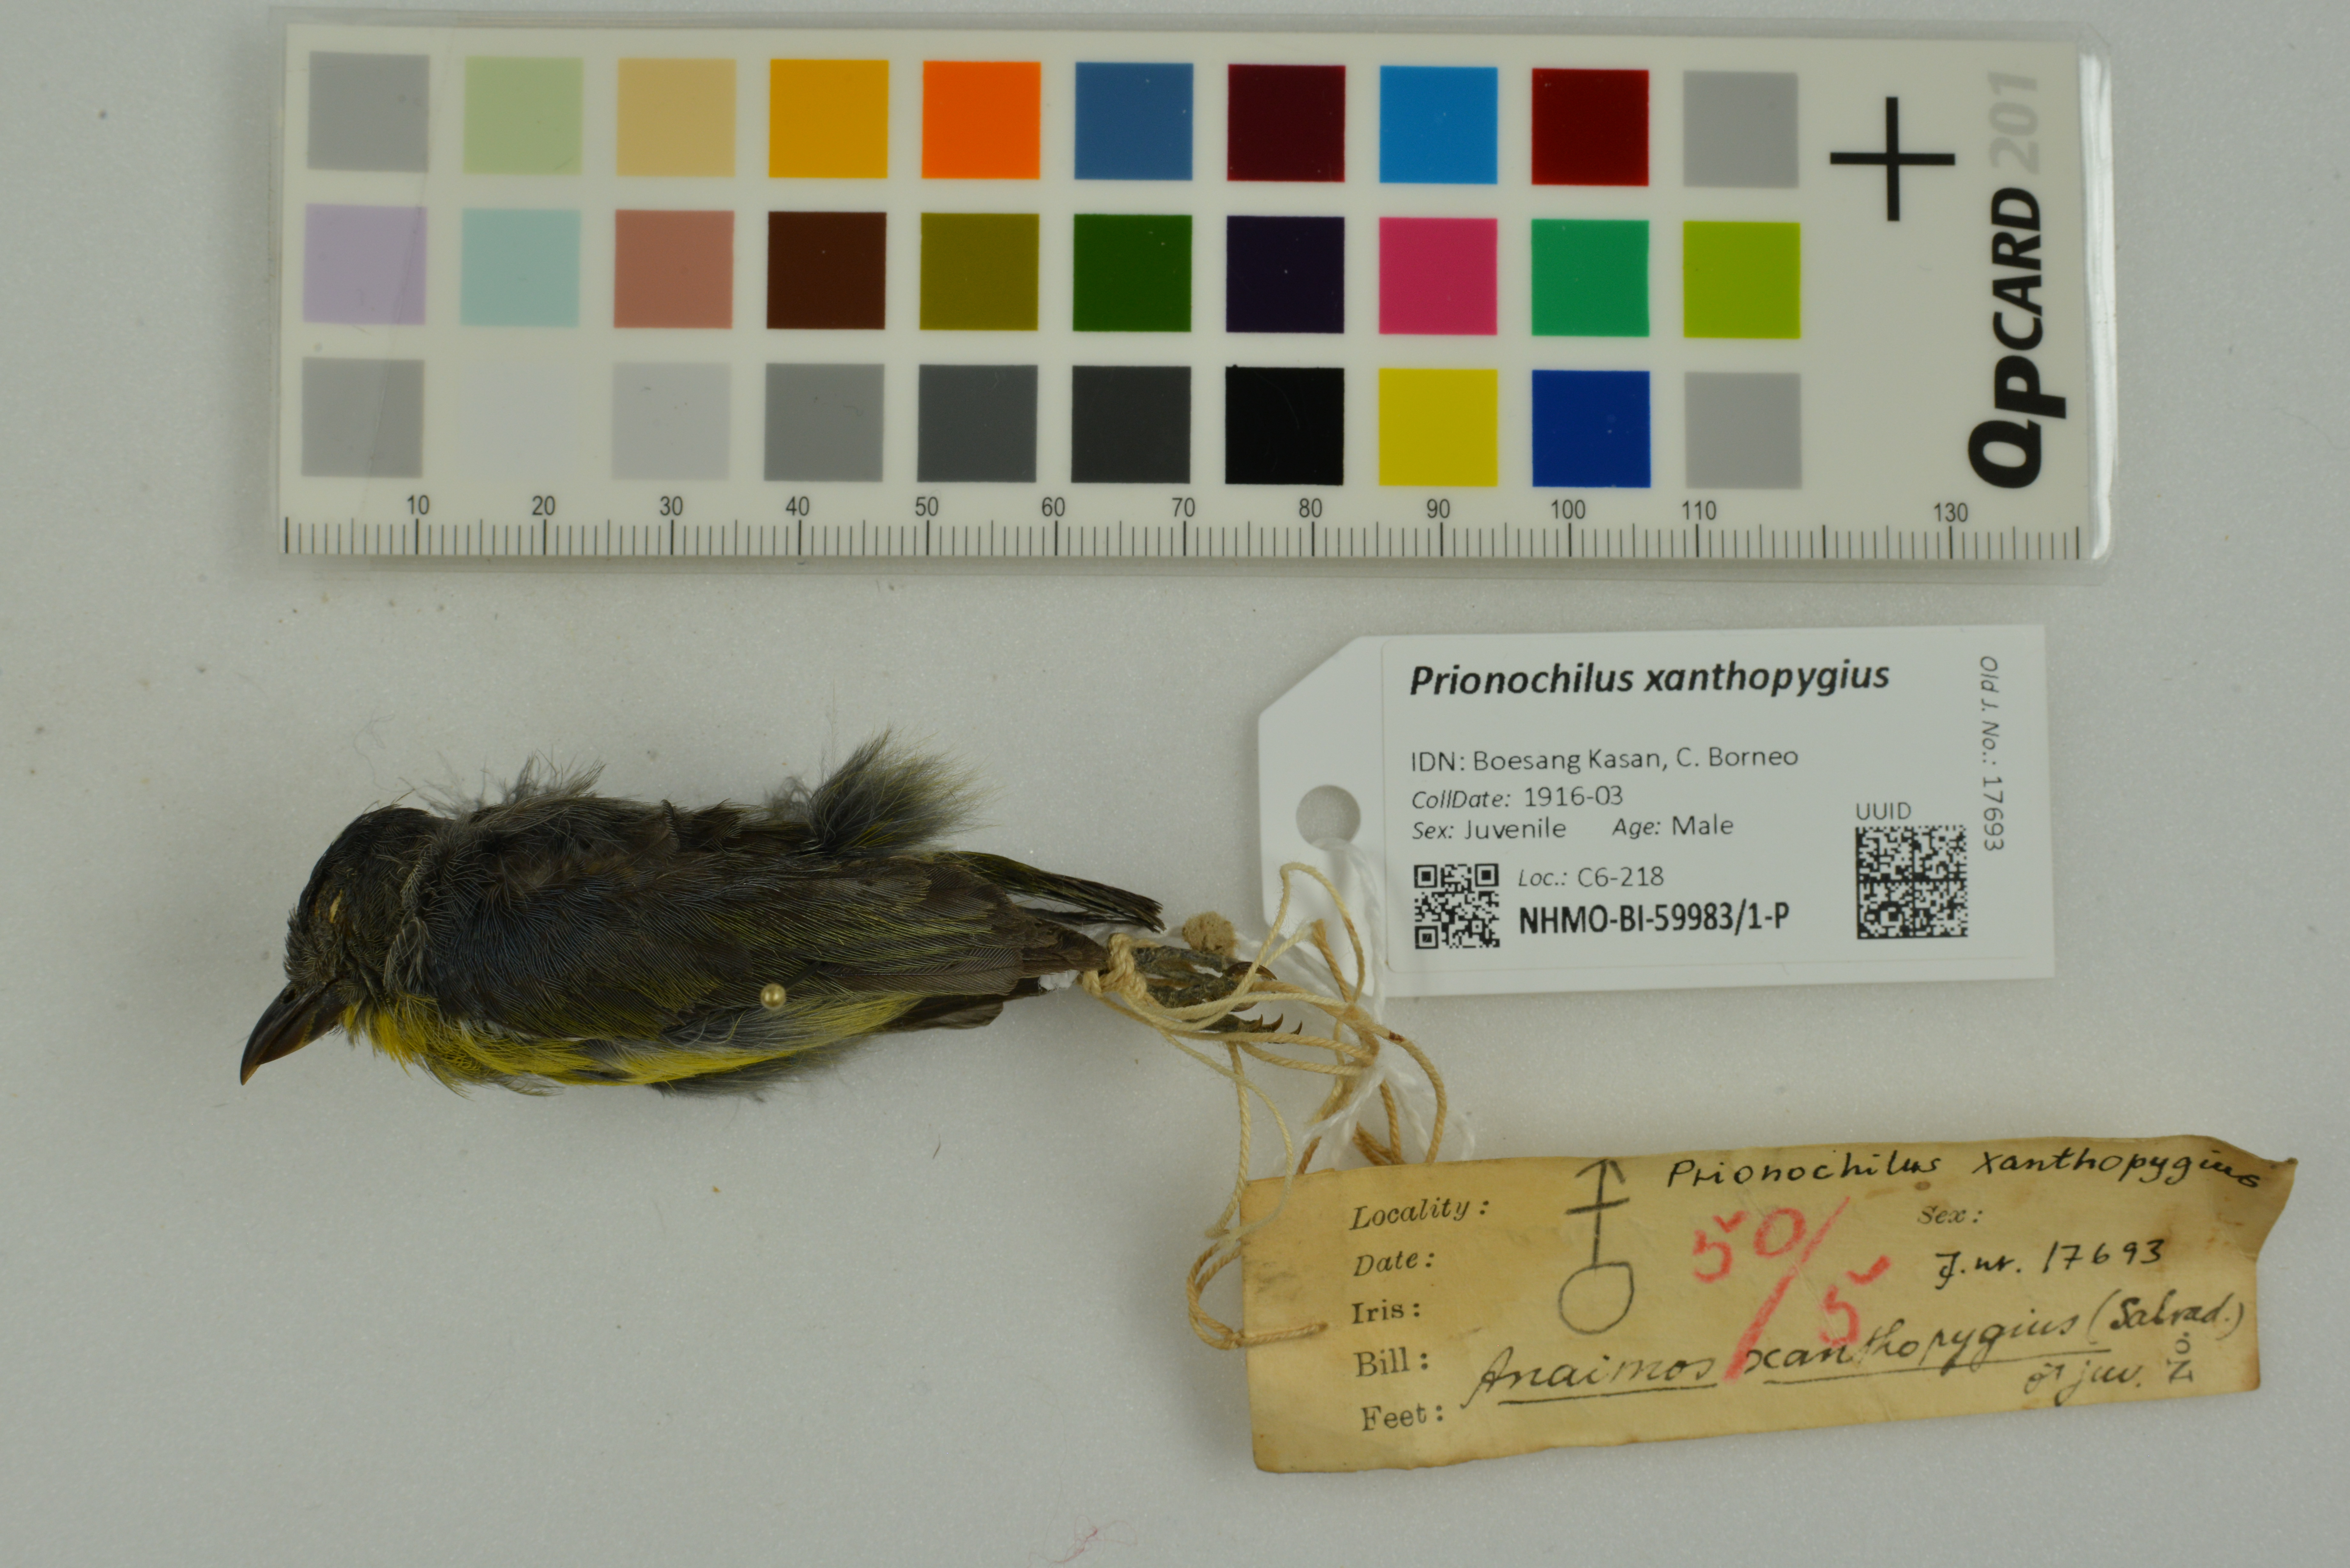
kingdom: Animalia
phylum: Chordata
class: Aves
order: Passeriformes
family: Dicaeidae
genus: Prionochilus
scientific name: Prionochilus xanthopygius
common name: Yellow-rumped flowerpecker
